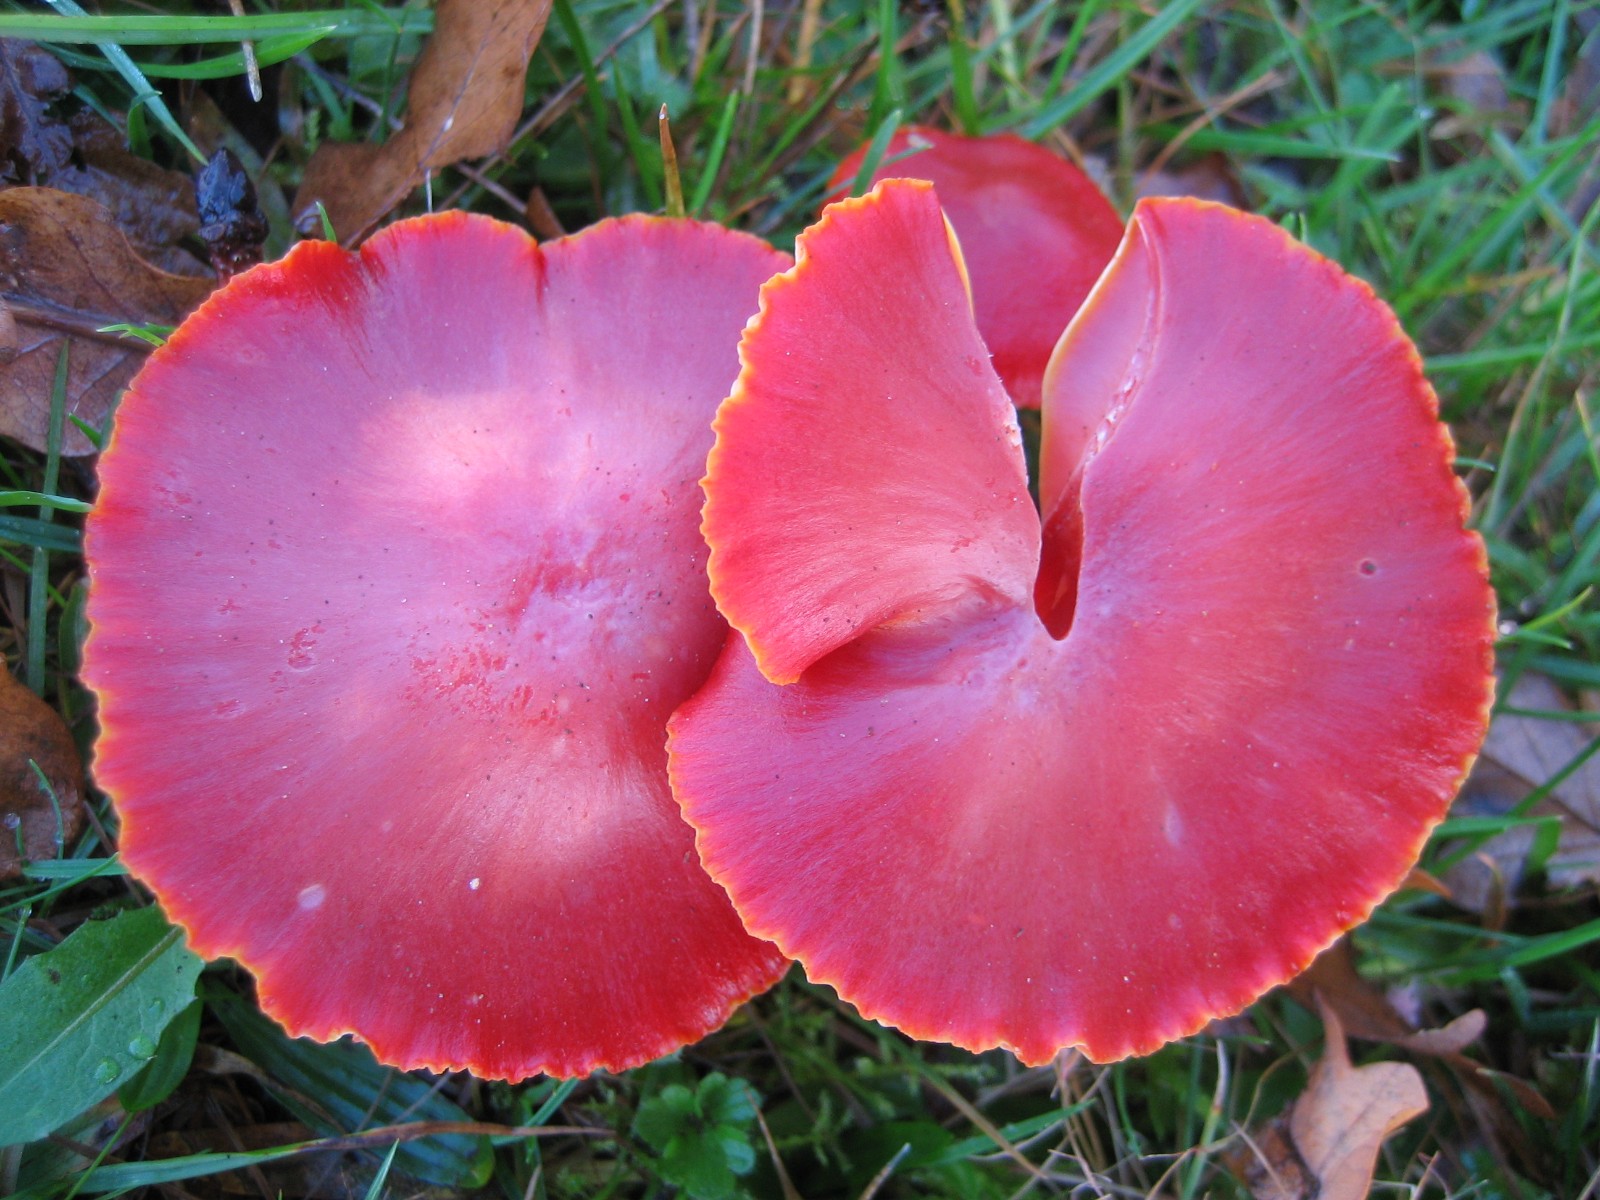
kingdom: Fungi
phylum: Basidiomycota
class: Agaricomycetes
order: Agaricales
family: Hygrophoraceae
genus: Hygrocybe
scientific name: Hygrocybe coccinea
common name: cinnober-vokshat
